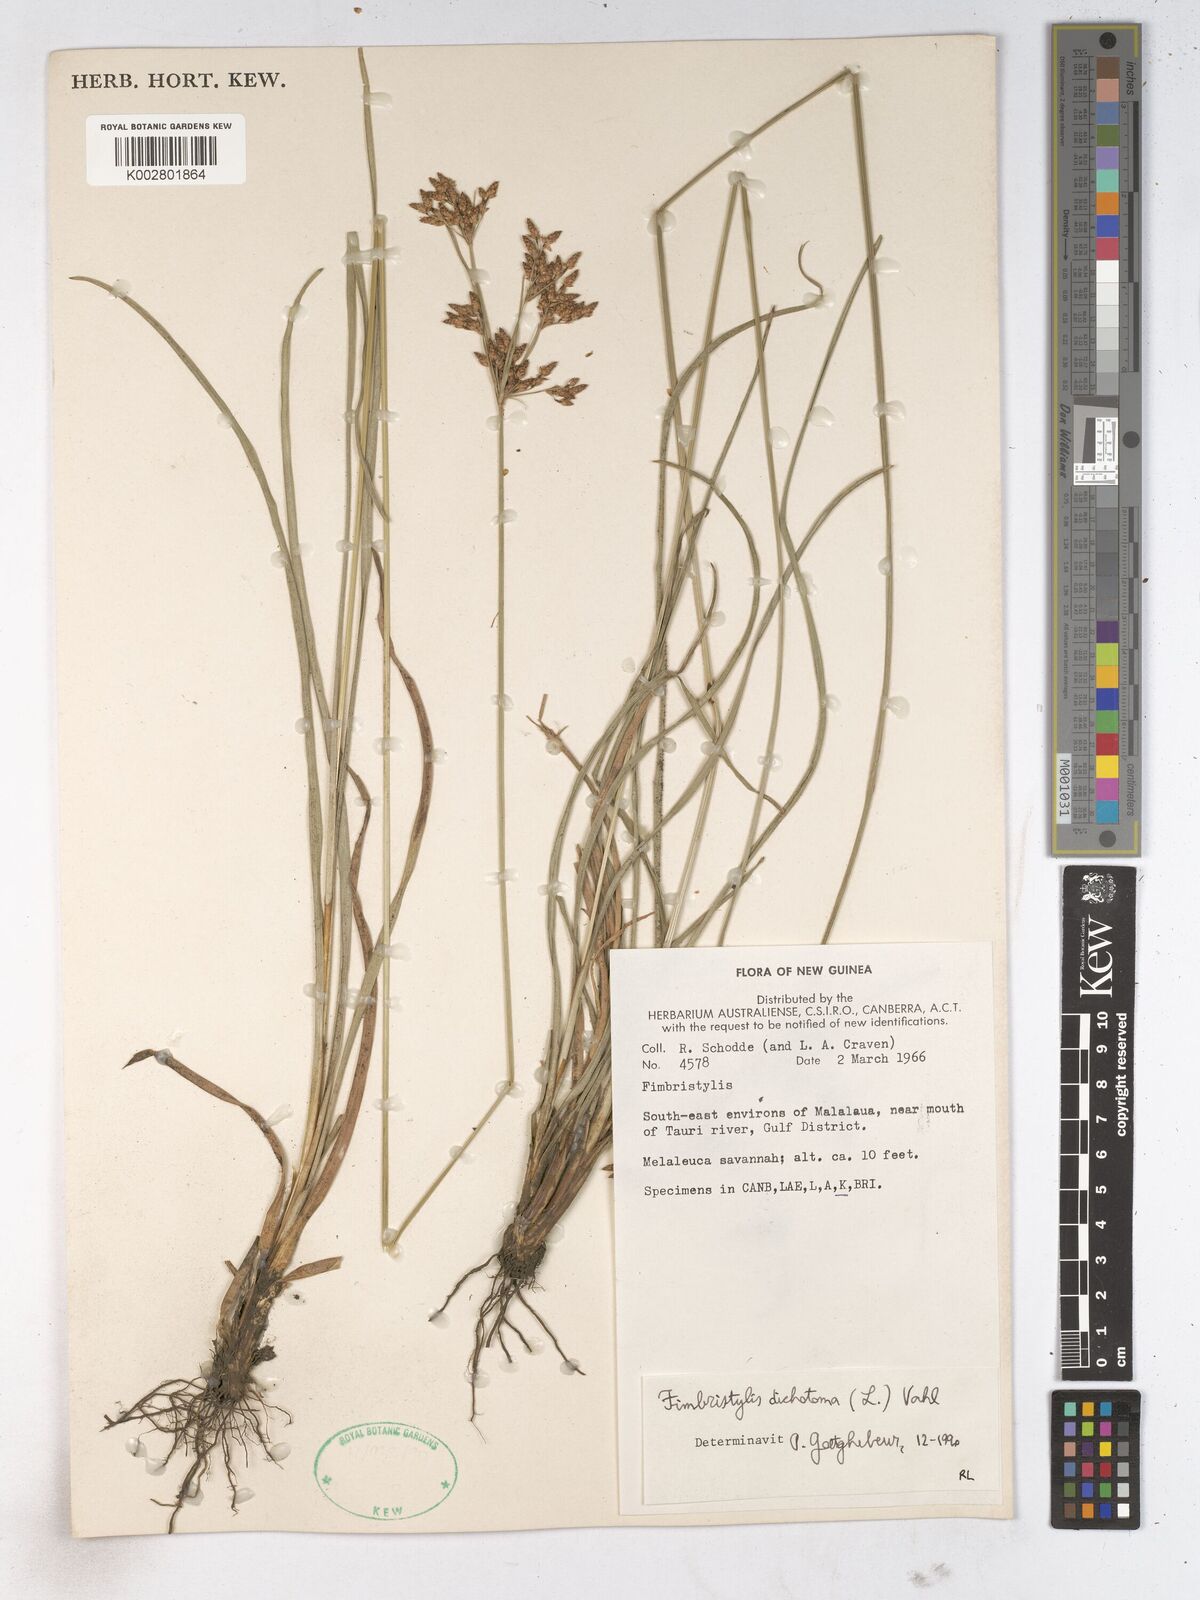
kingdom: Plantae
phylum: Tracheophyta
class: Liliopsida
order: Poales
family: Cyperaceae
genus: Fimbristylis
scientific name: Fimbristylis dichotoma
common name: Forked fimbry
